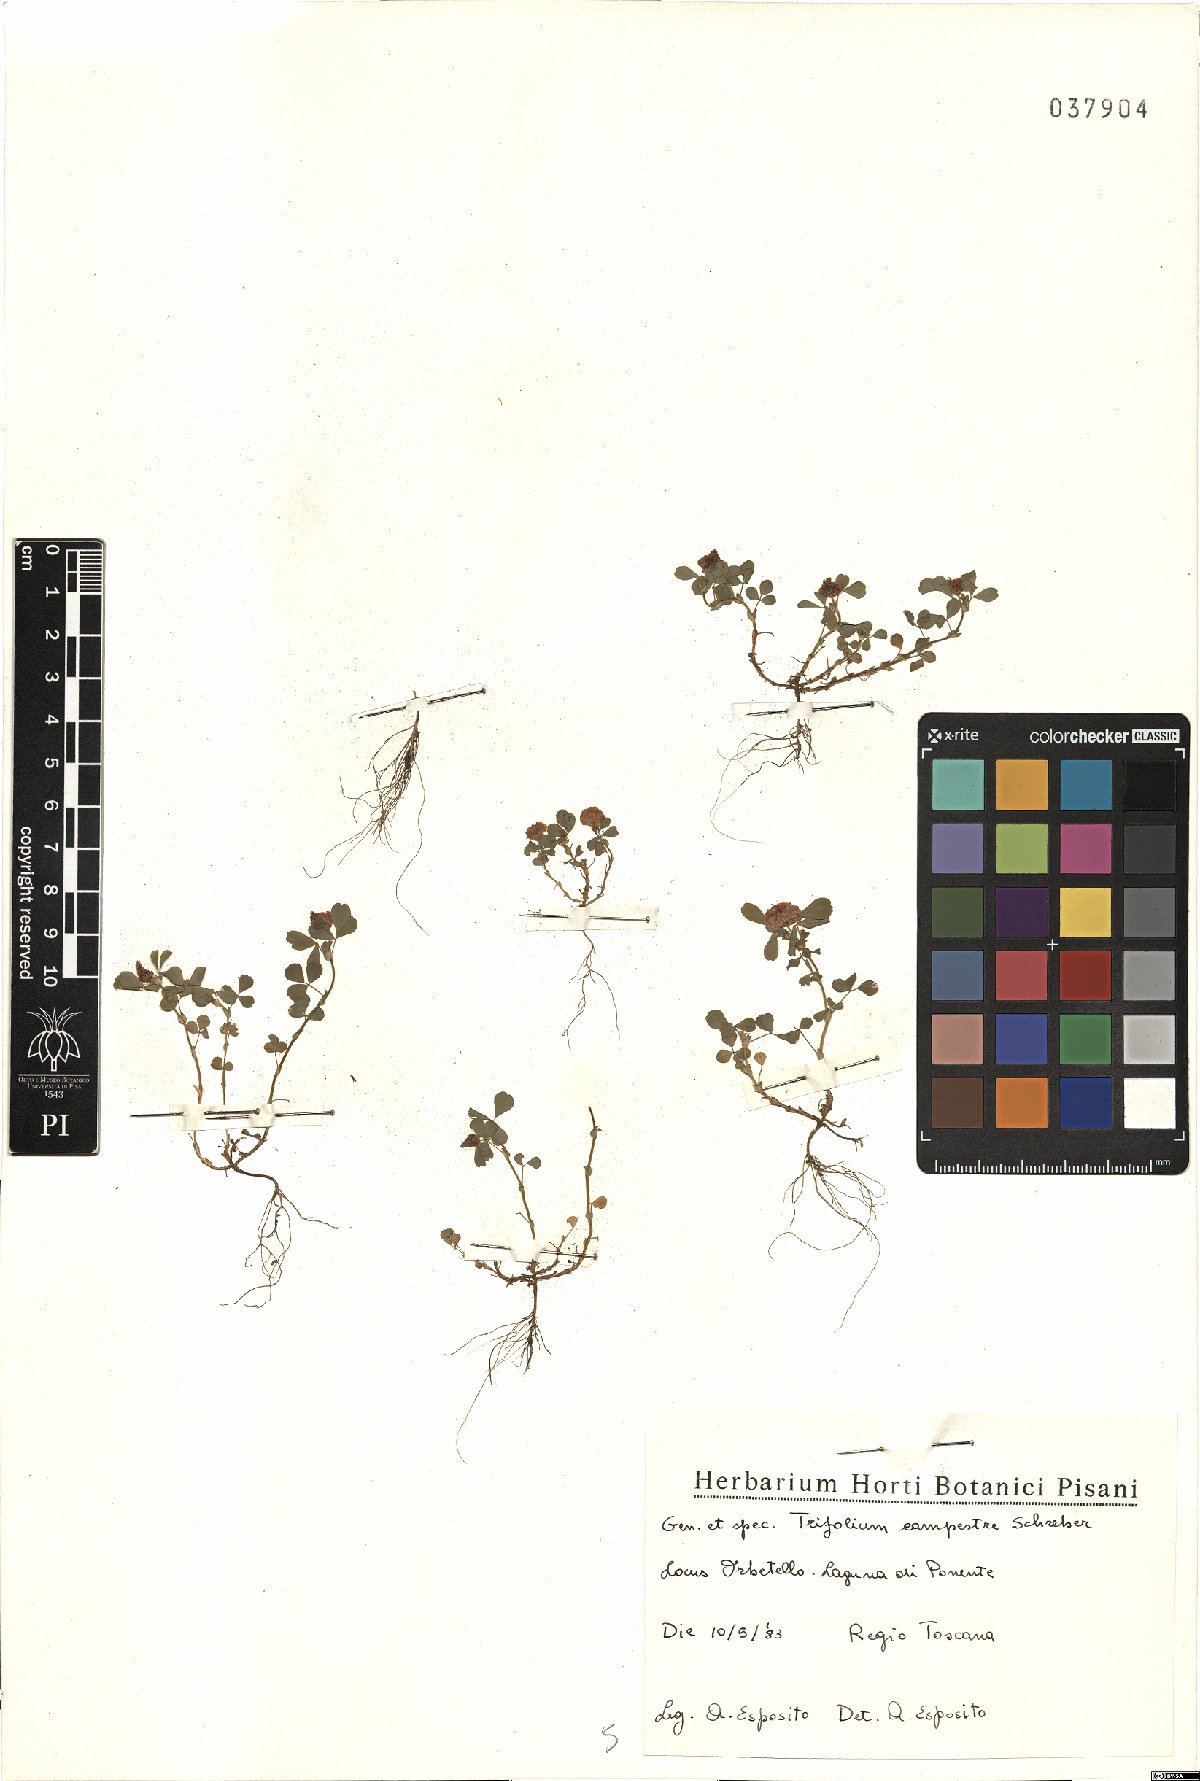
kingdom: Plantae
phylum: Tracheophyta
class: Magnoliopsida
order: Fabales
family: Fabaceae
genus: Trifolium
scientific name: Trifolium campestre
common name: Field clover
